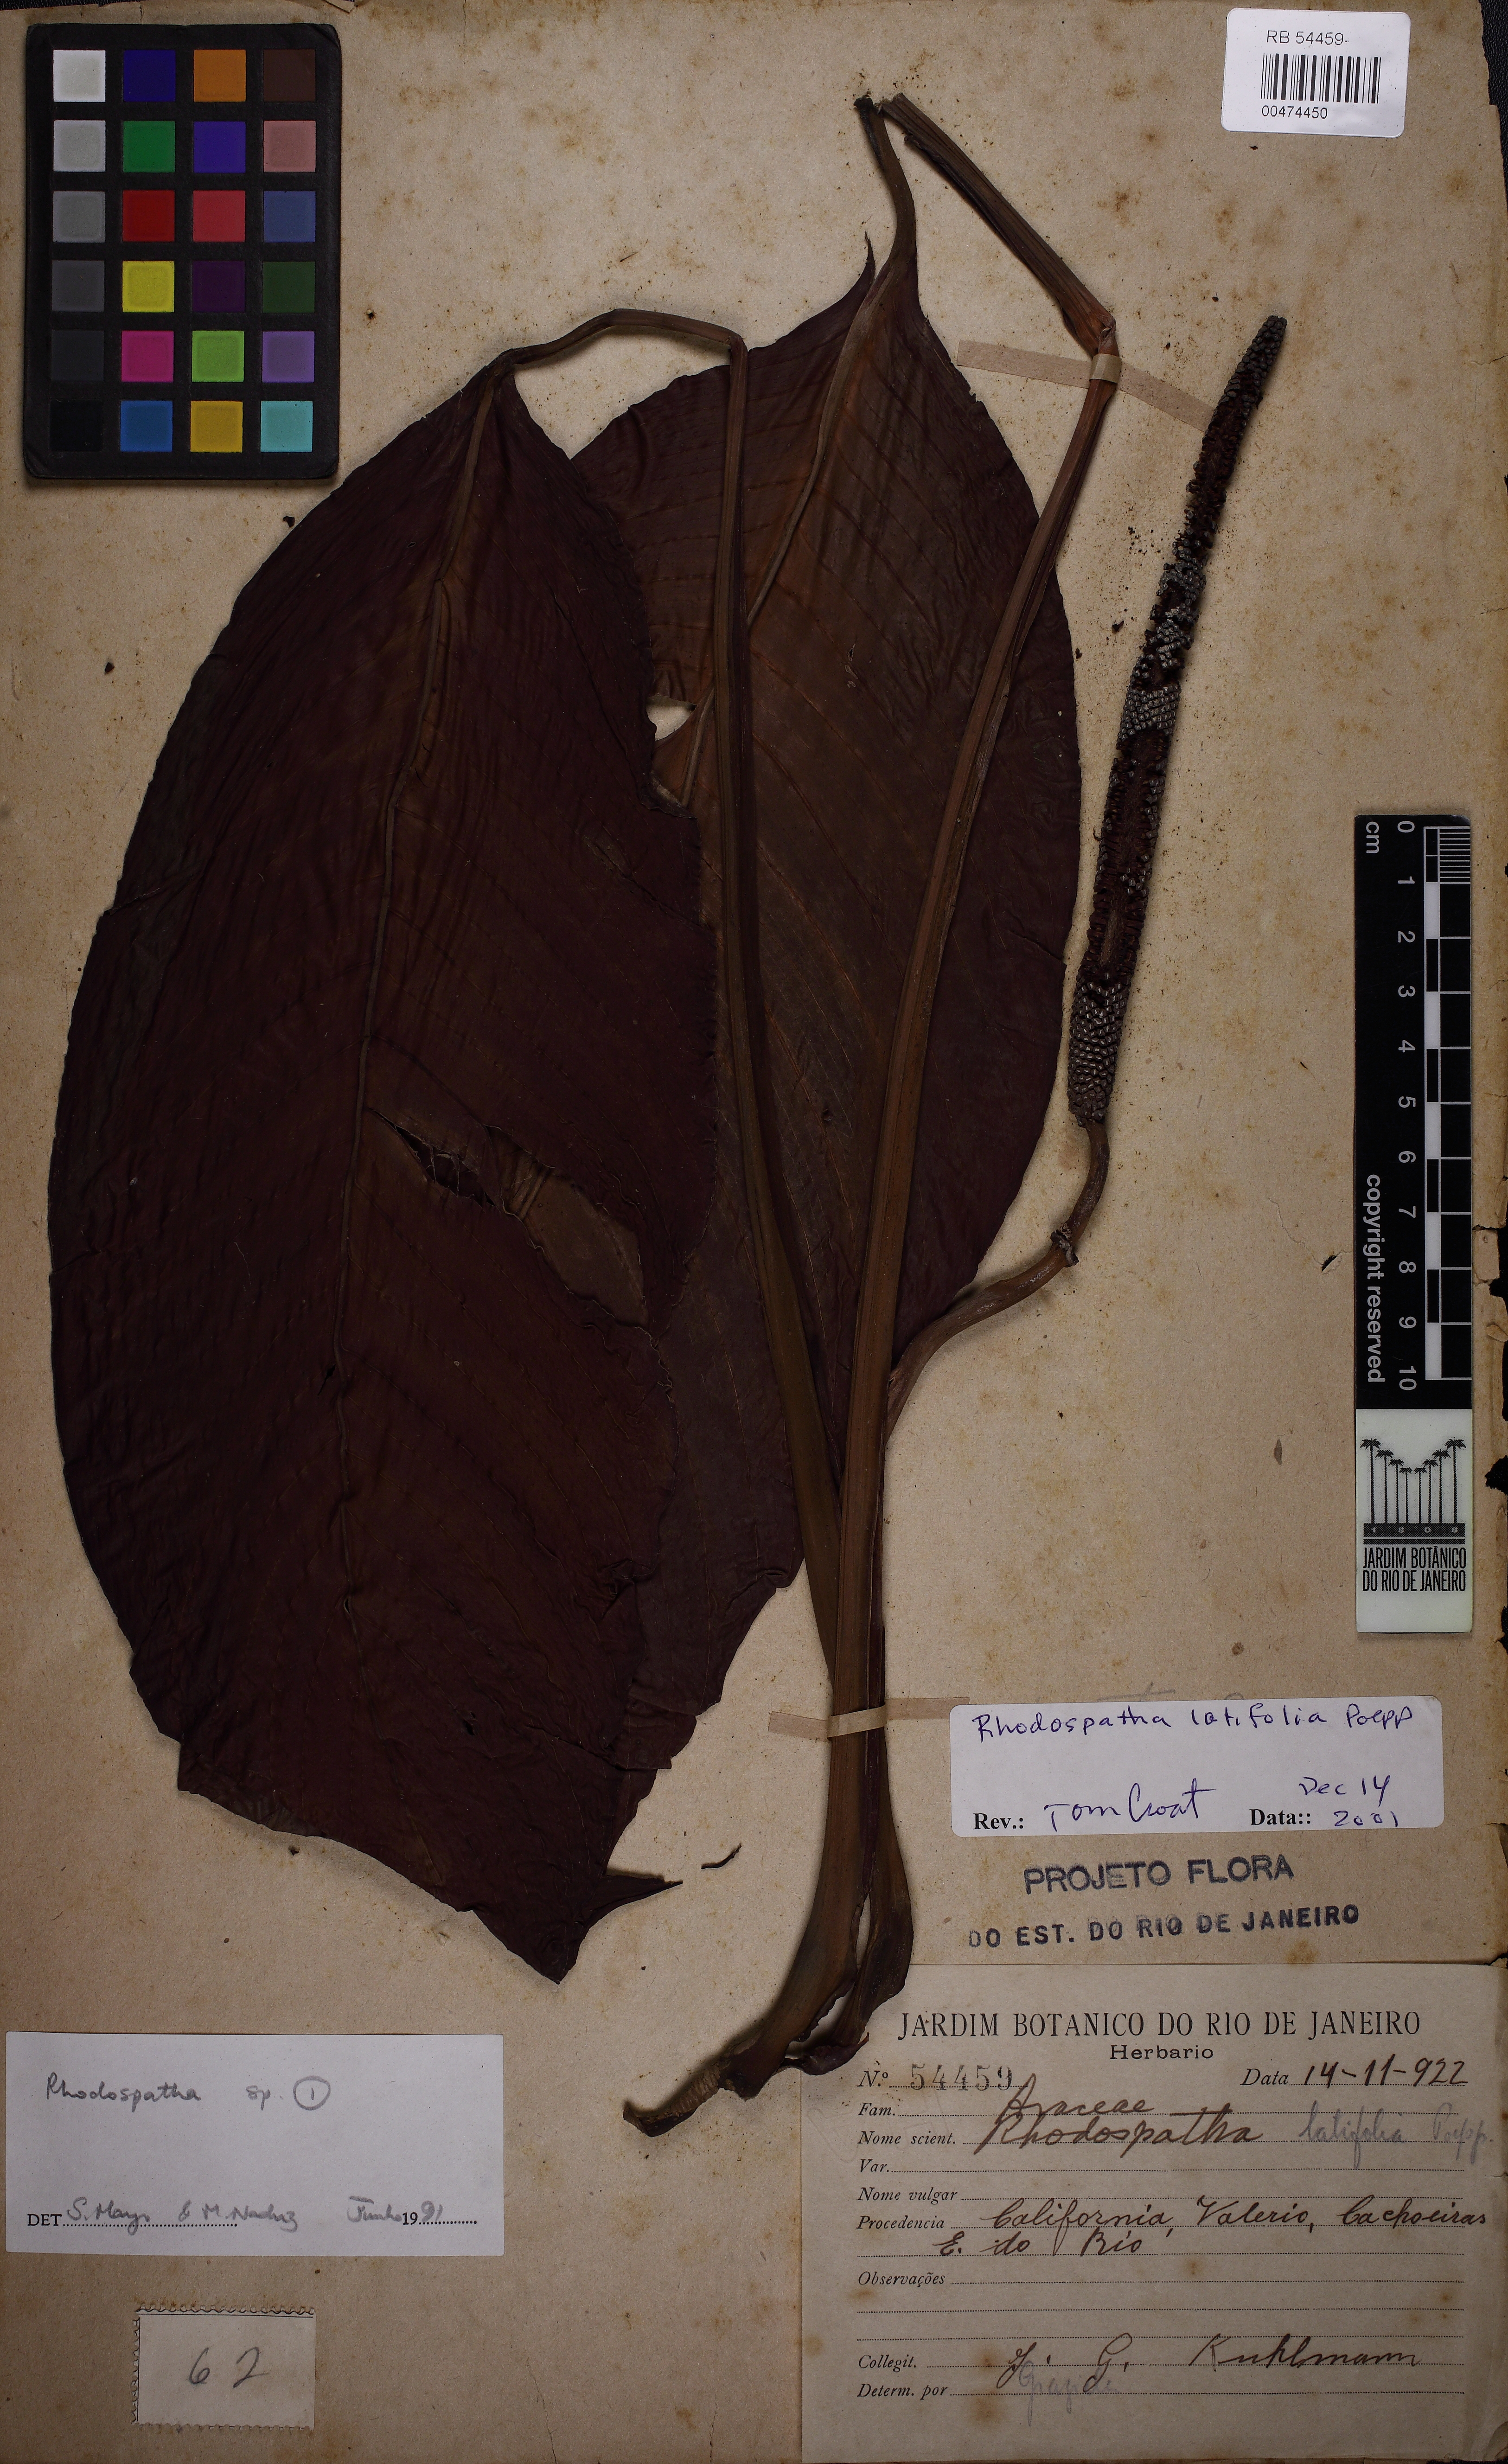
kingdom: Plantae
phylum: Tracheophyta
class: Liliopsida
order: Alismatales
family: Araceae
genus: Rhodospatha
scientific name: Rhodospatha latifolia
